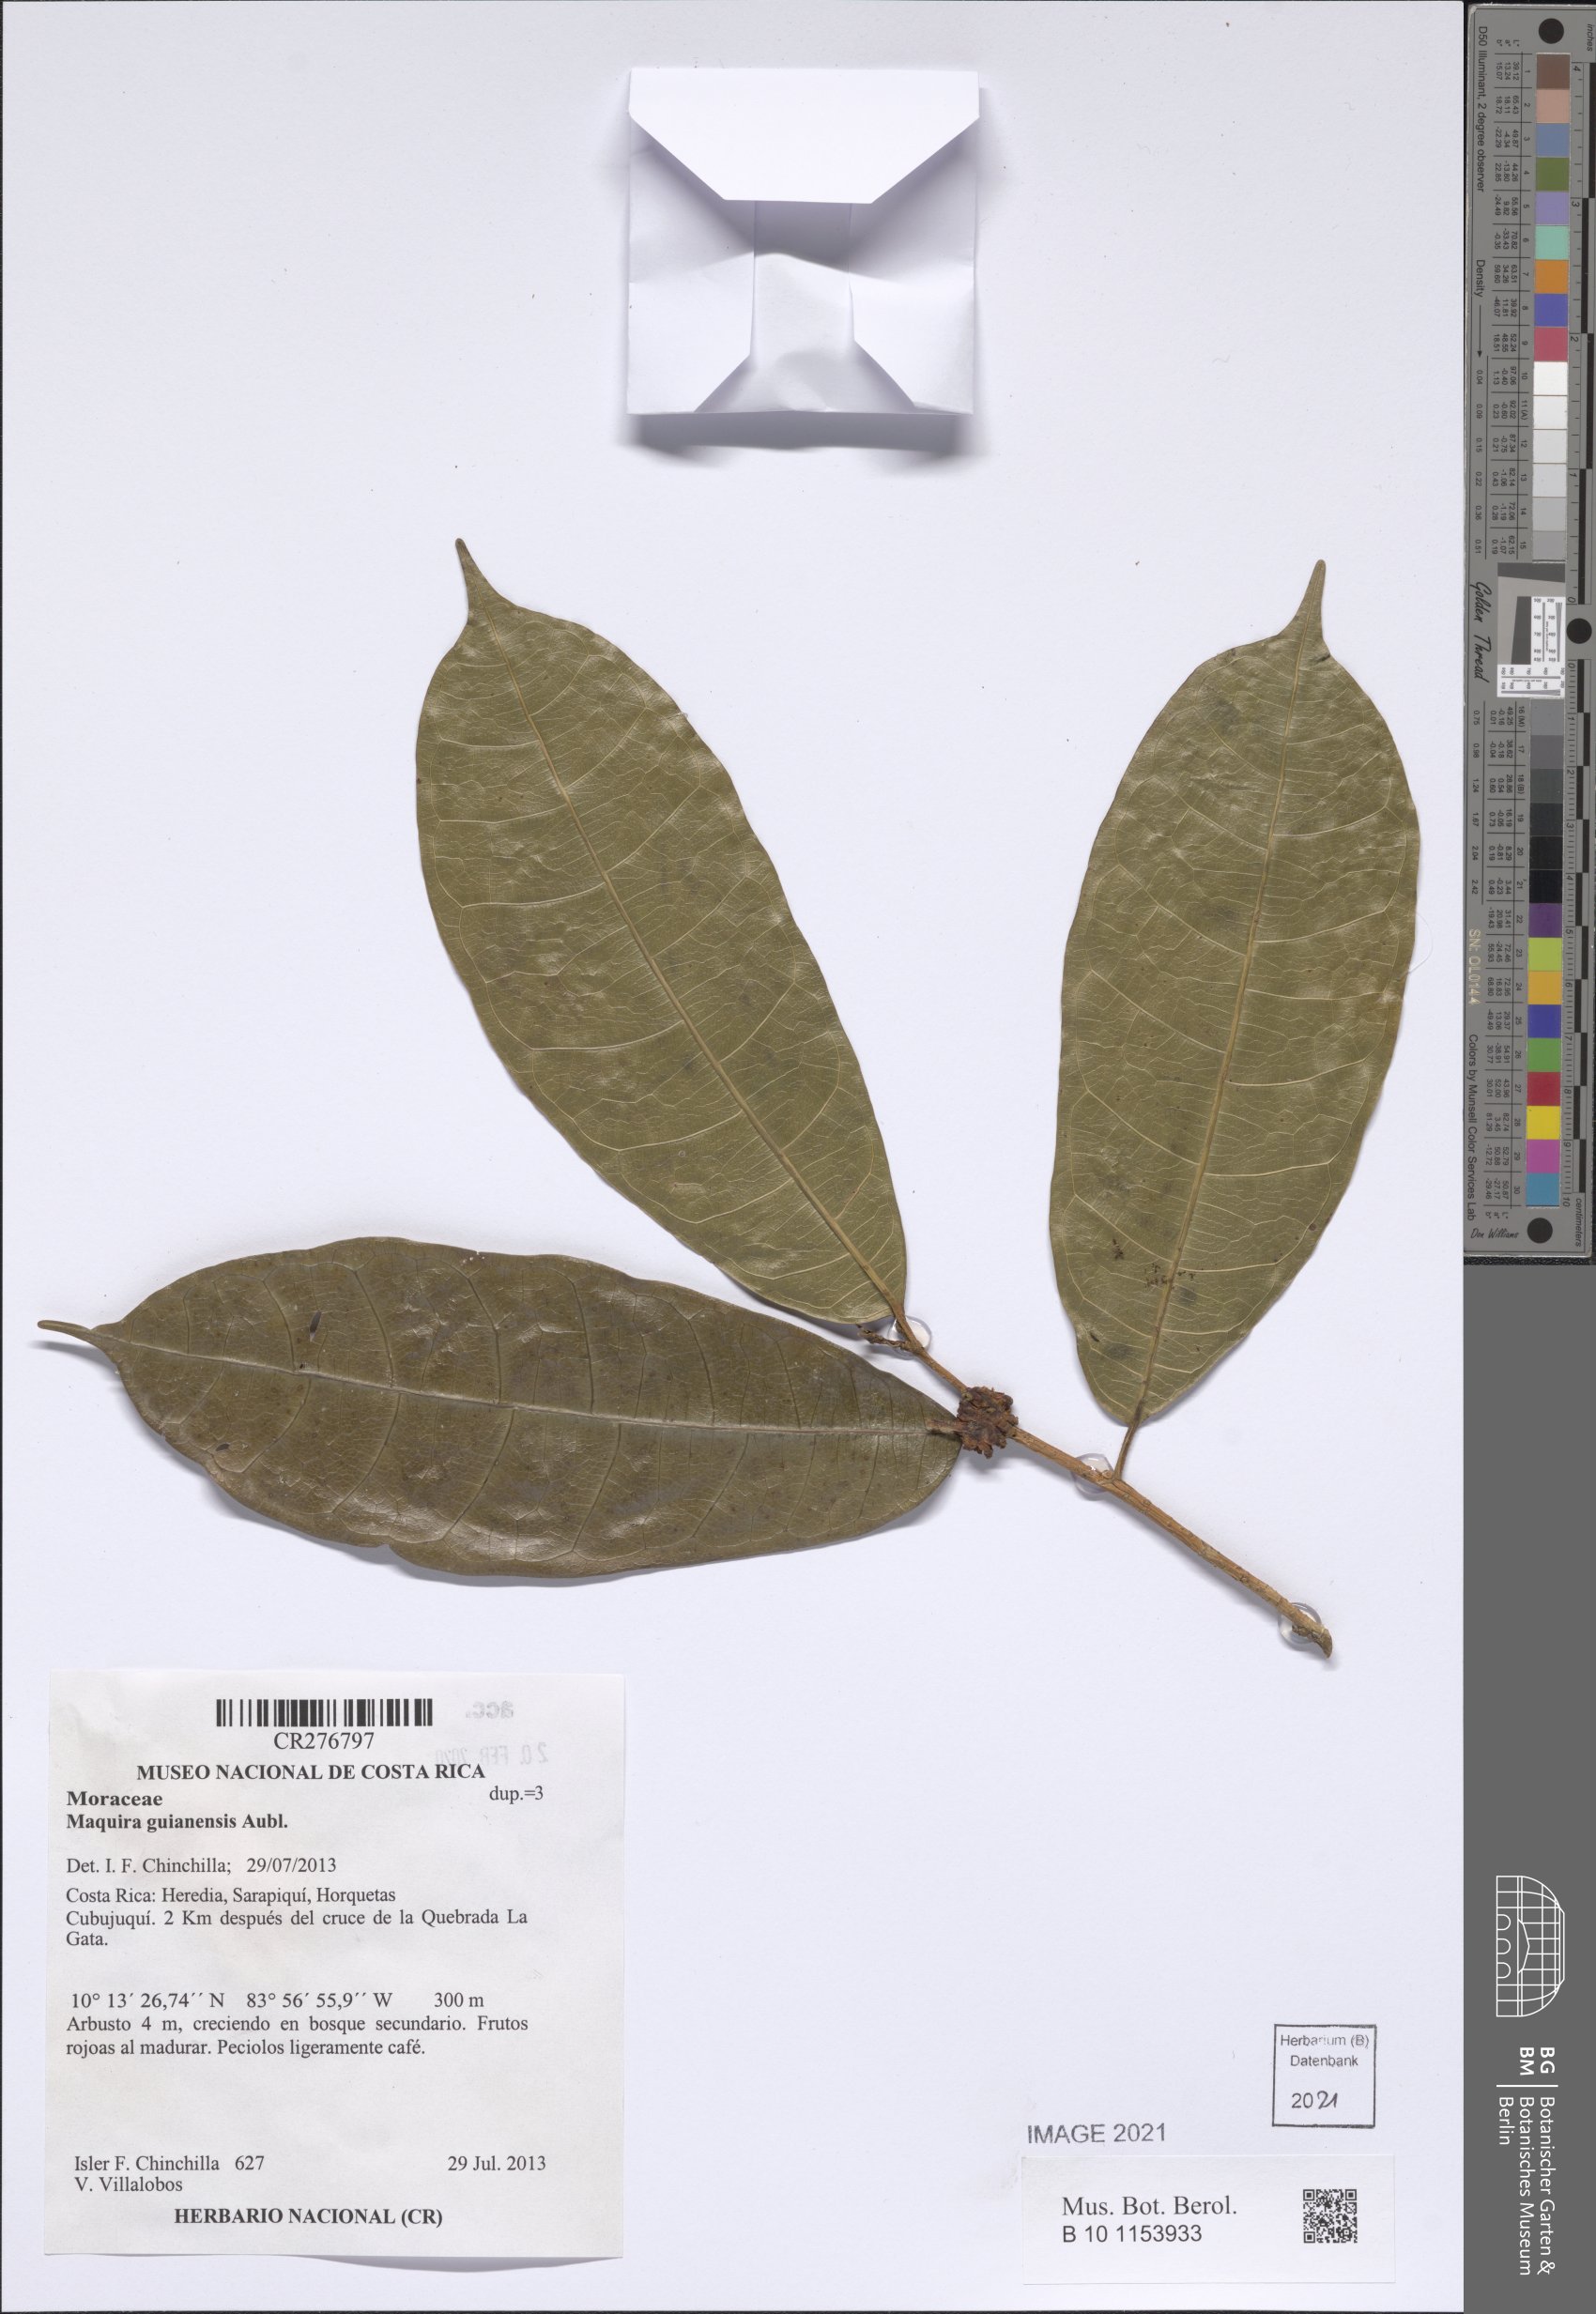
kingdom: Plantae
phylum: Tracheophyta
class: Magnoliopsida
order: Rosales
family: Moraceae
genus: Maquira
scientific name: Maquira guianensis
